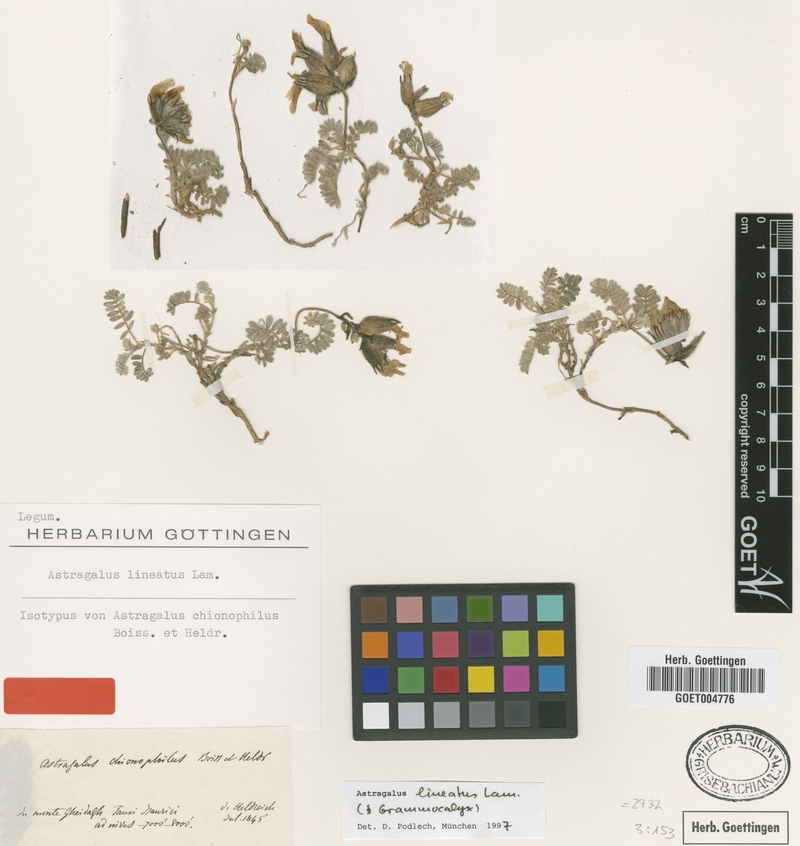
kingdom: Plantae
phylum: Tracheophyta
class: Magnoliopsida
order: Fabales
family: Fabaceae
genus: Astragalus
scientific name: Astragalus lineatus
